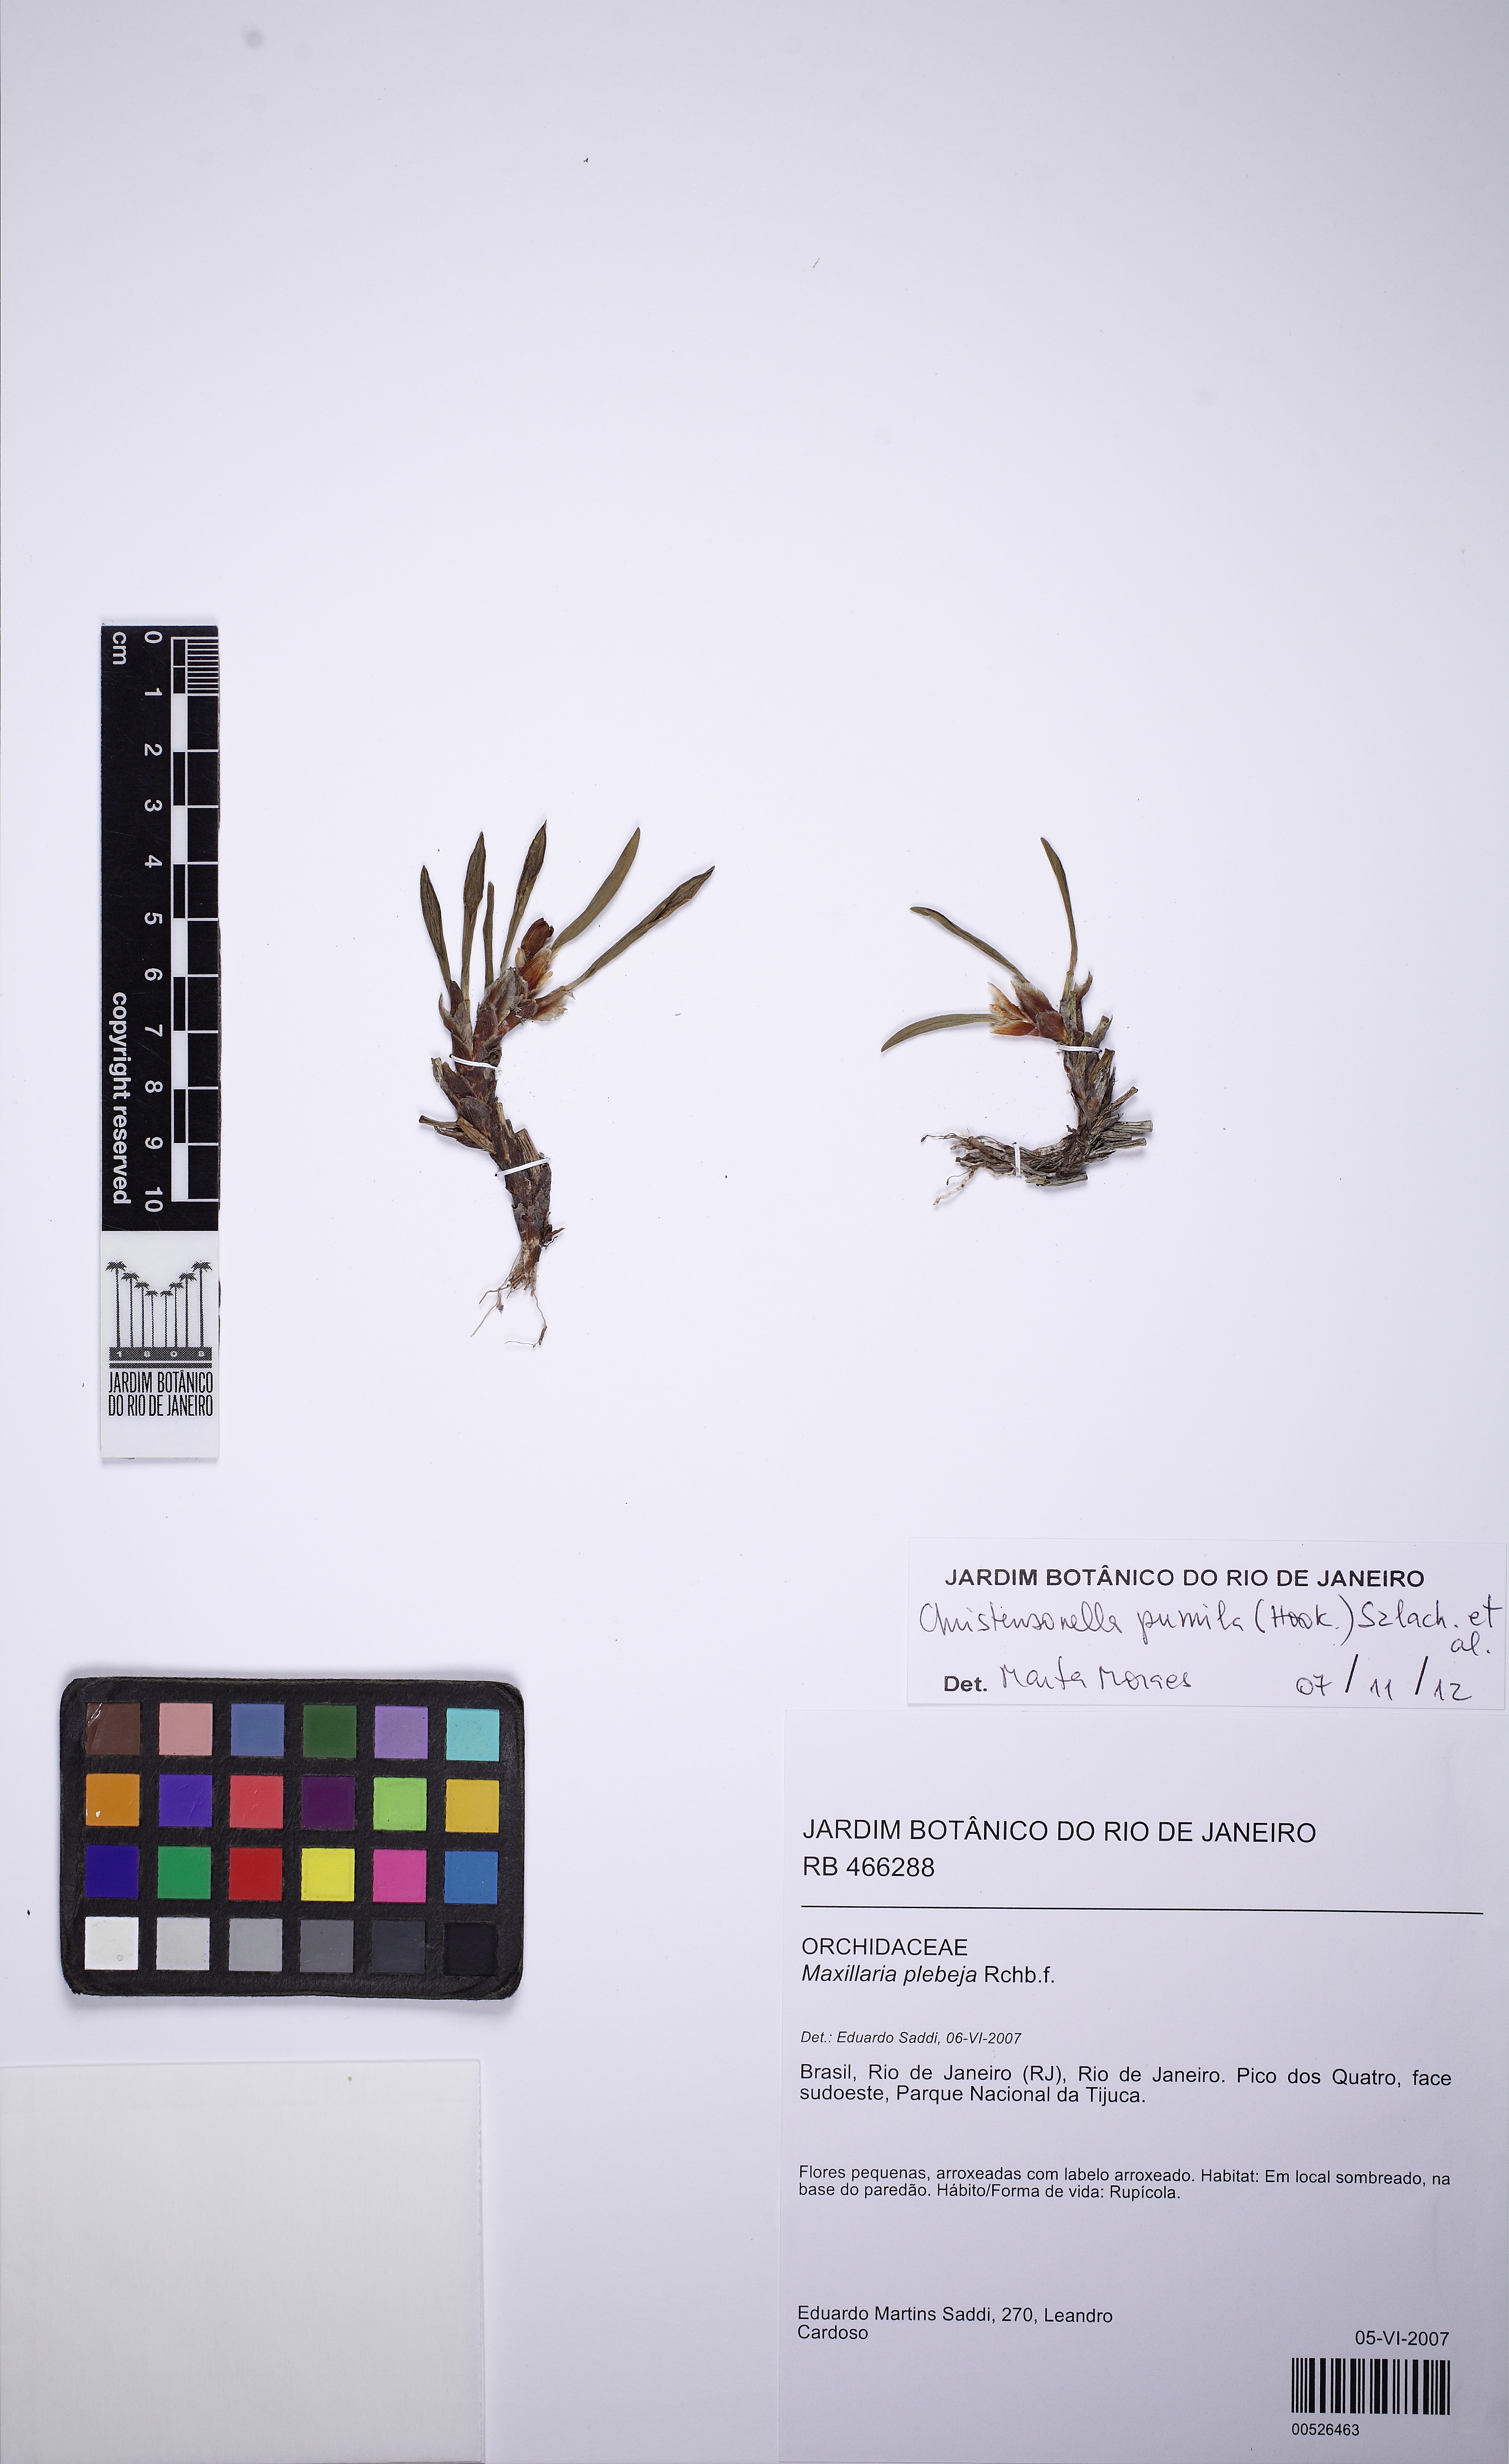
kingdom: Plantae
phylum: Tracheophyta
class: Liliopsida
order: Asparagales
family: Orchidaceae
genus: Maxillaria
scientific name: Maxillaria pumila
